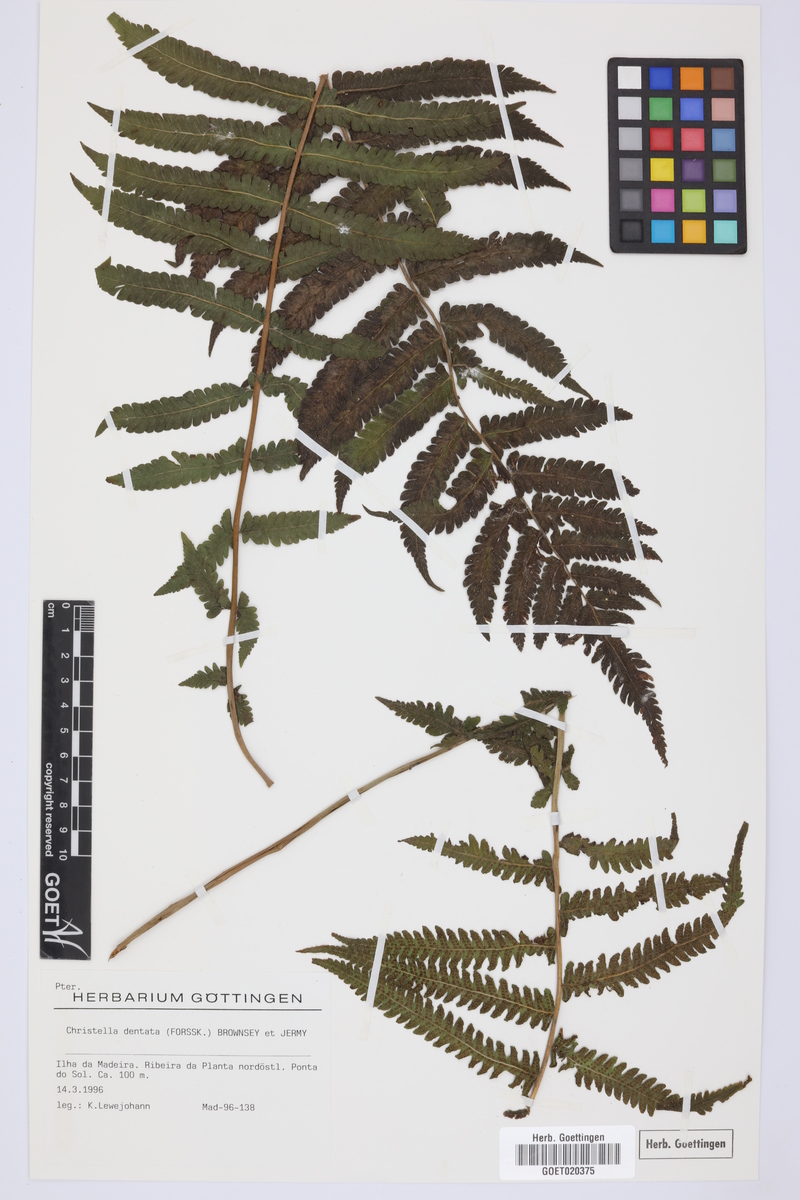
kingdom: Plantae
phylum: Tracheophyta
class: Polypodiopsida
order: Polypodiales
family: Thelypteridaceae
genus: Christella
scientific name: Christella dentata
